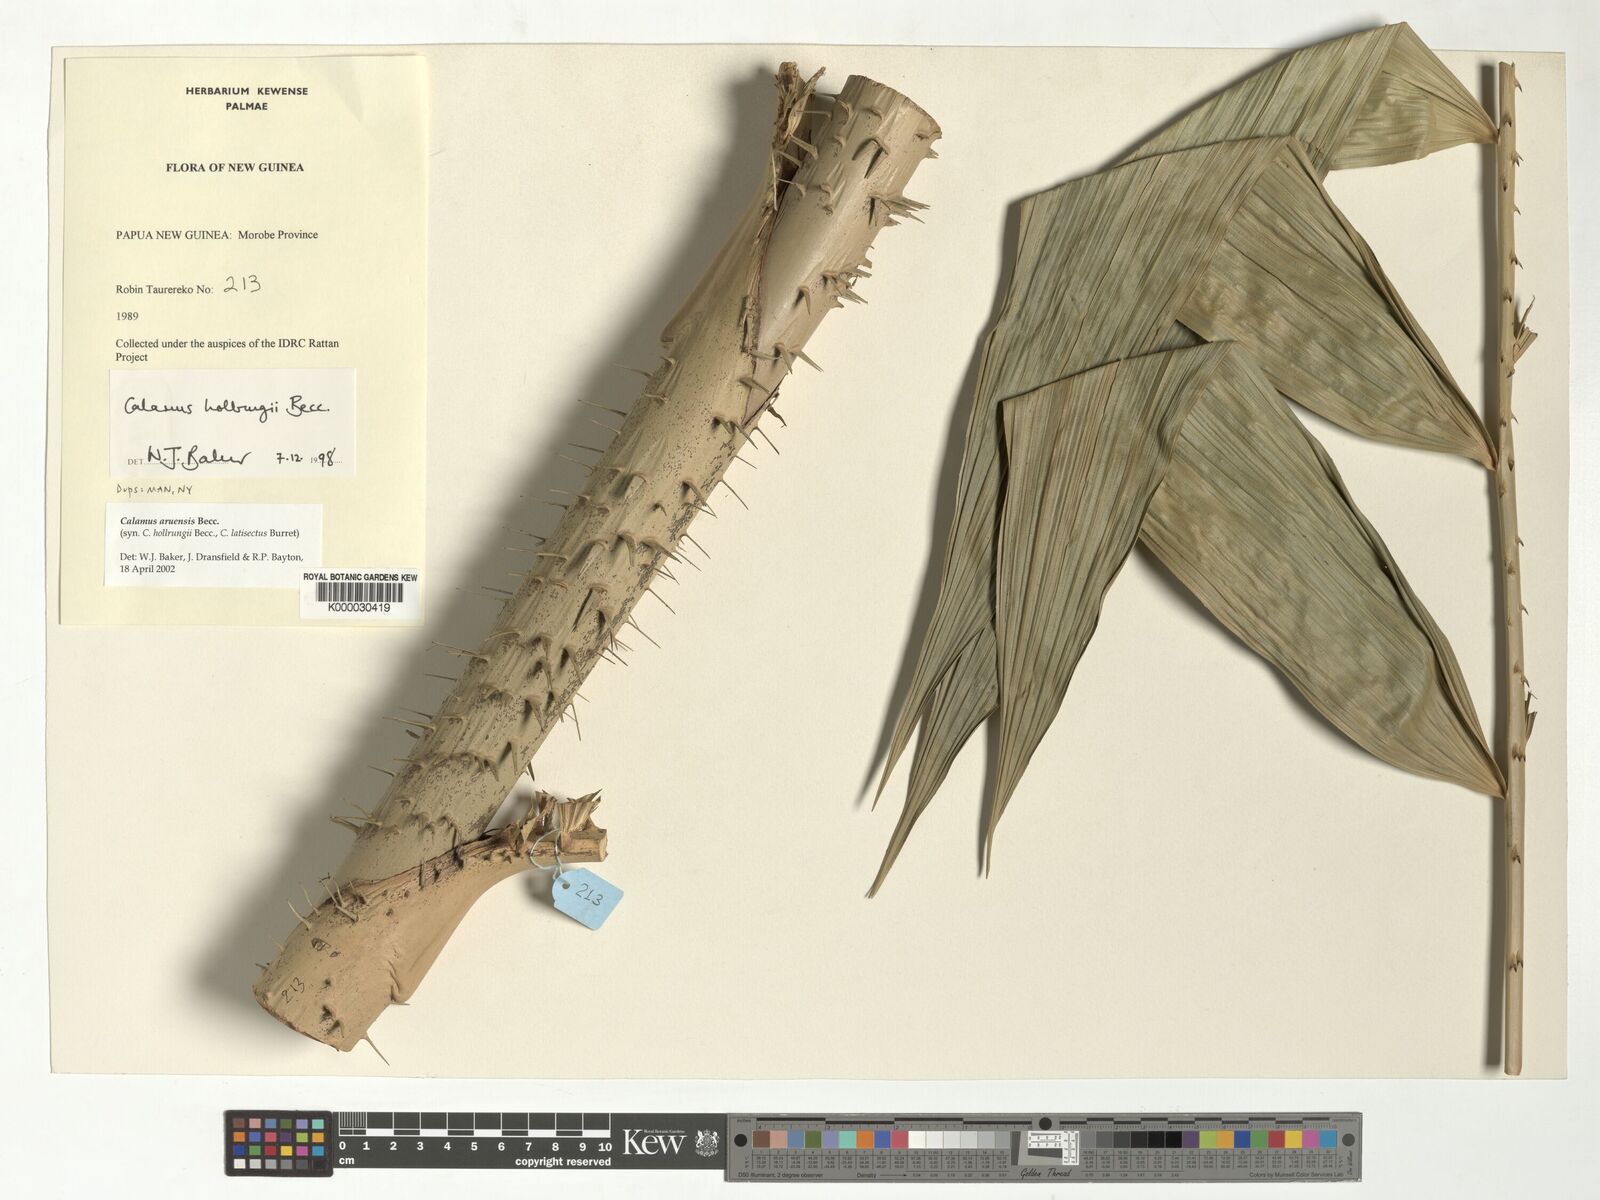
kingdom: Plantae
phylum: Tracheophyta
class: Liliopsida
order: Arecales
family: Arecaceae
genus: Calamus
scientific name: Calamus aruensis
